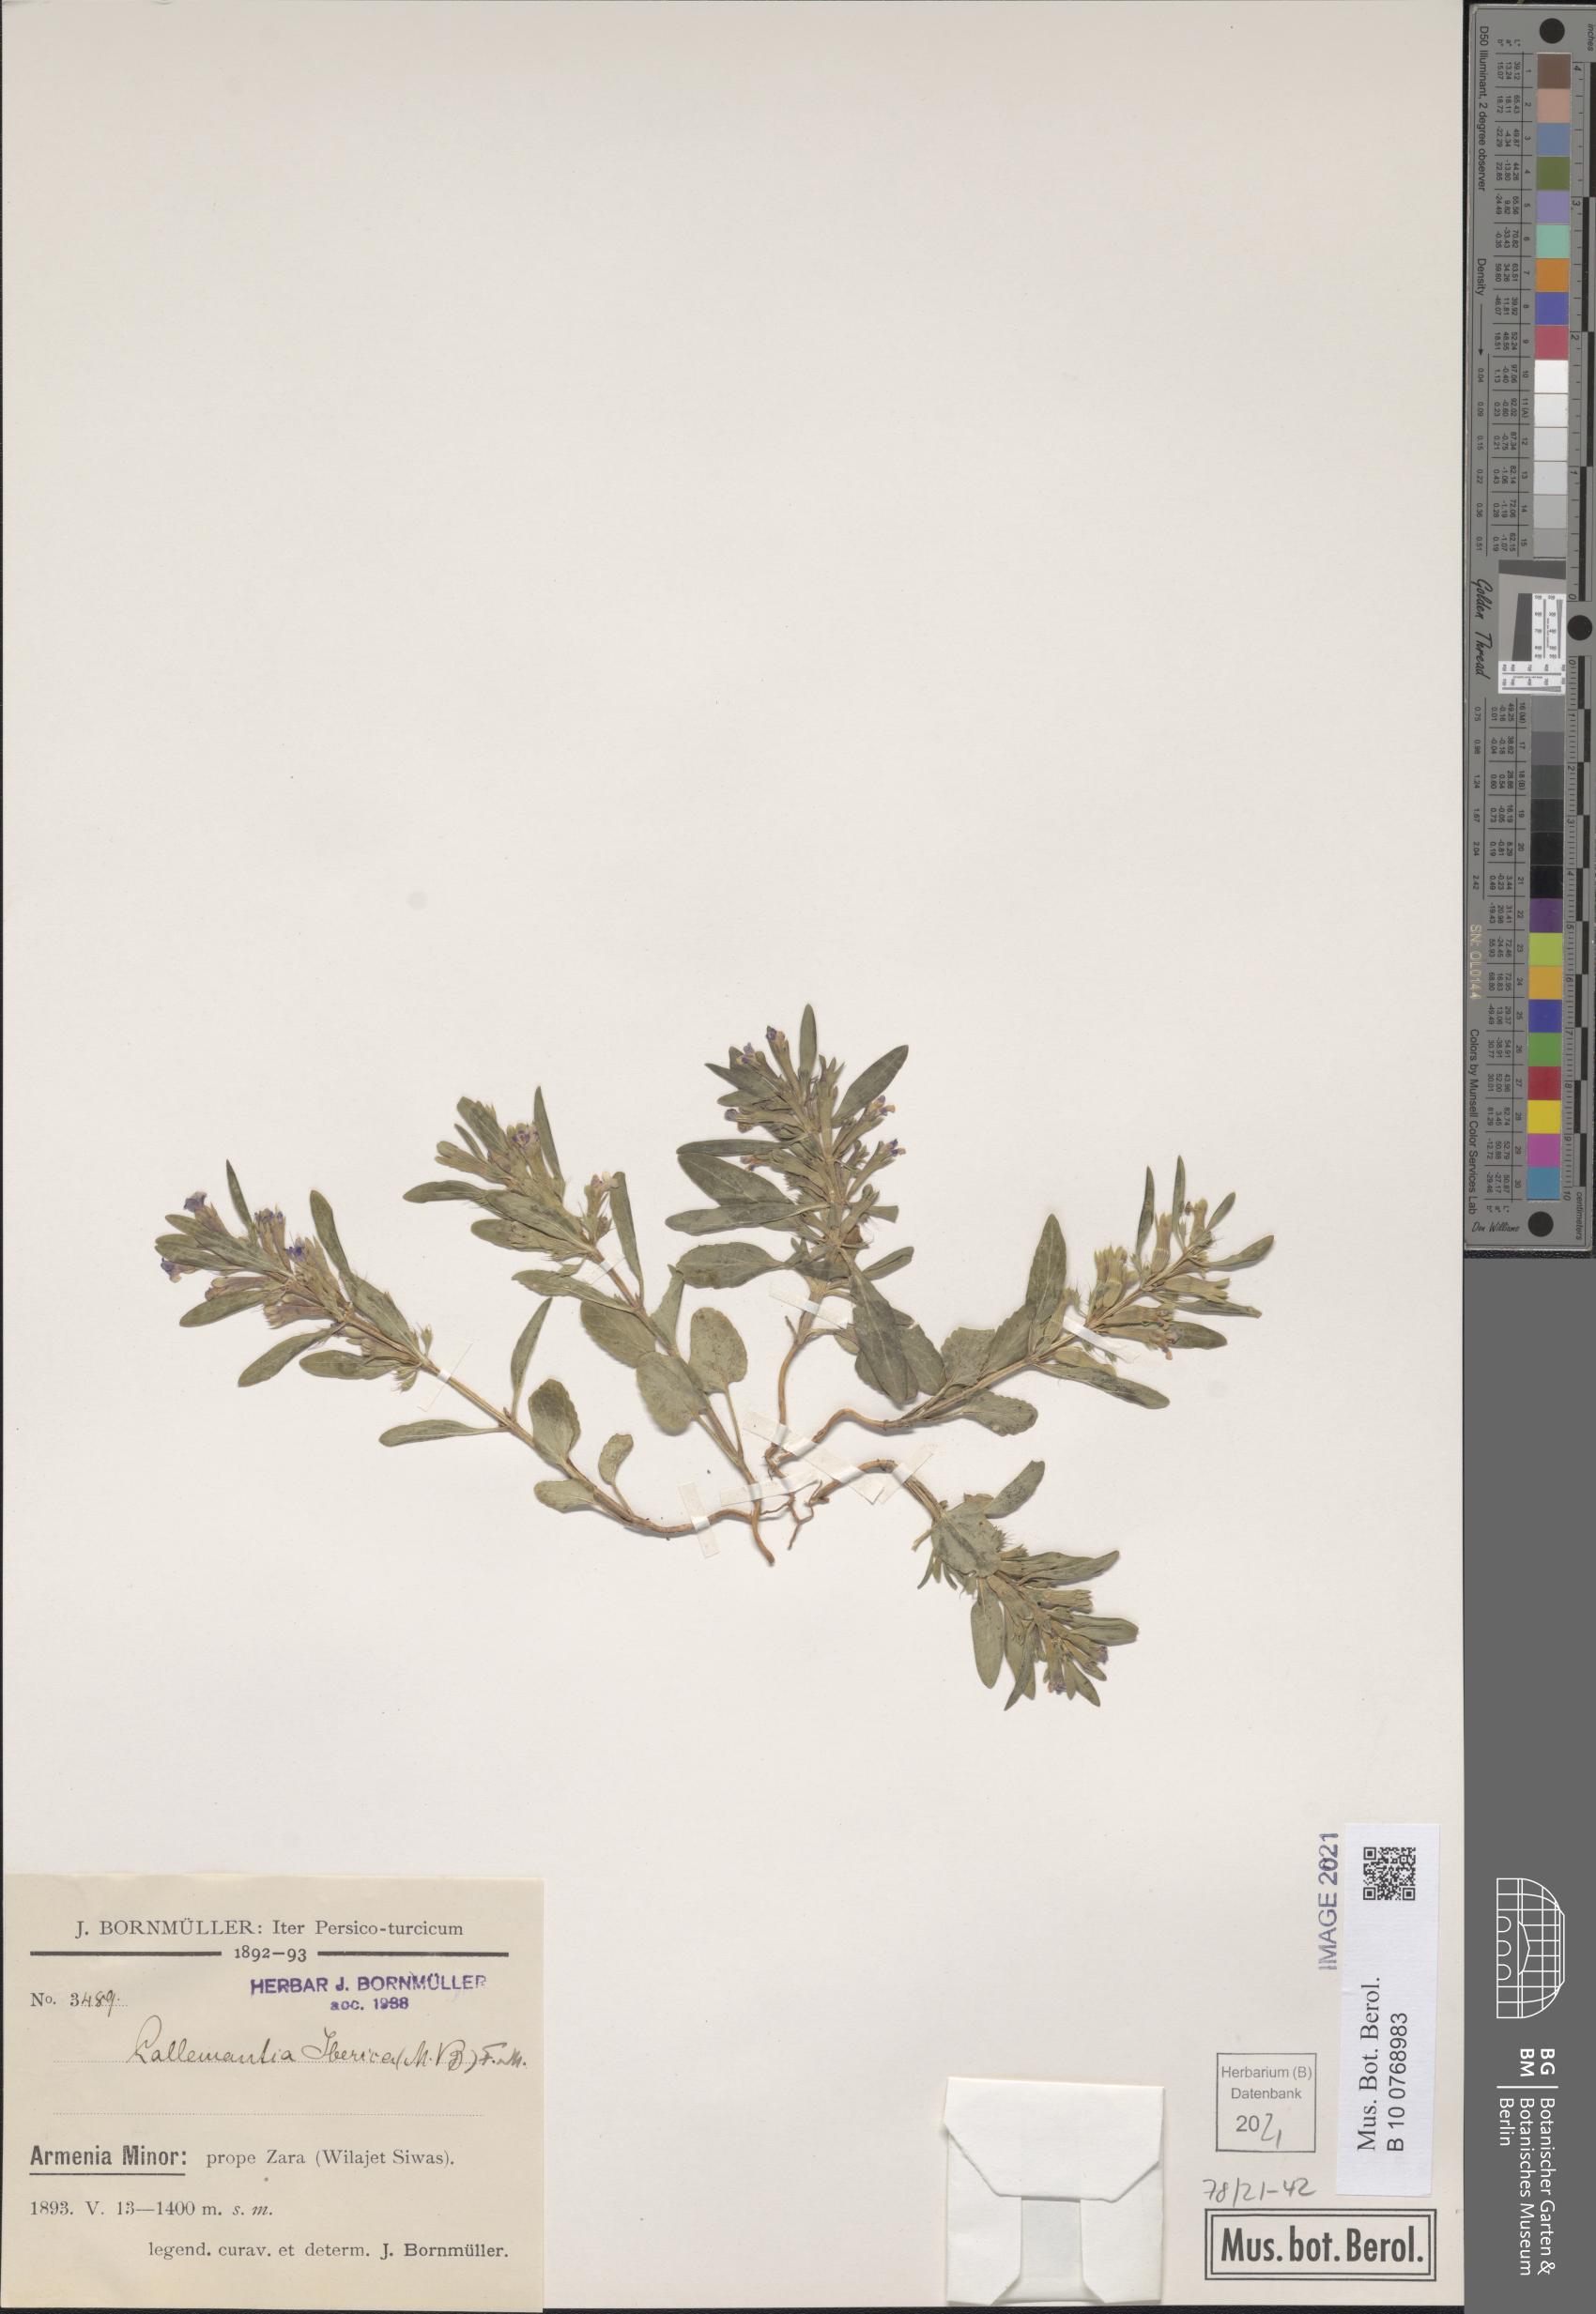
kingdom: Plantae
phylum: Tracheophyta
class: Magnoliopsida
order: Lamiales
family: Lamiaceae
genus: Lallemantia
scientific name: Lallemantia iberica
